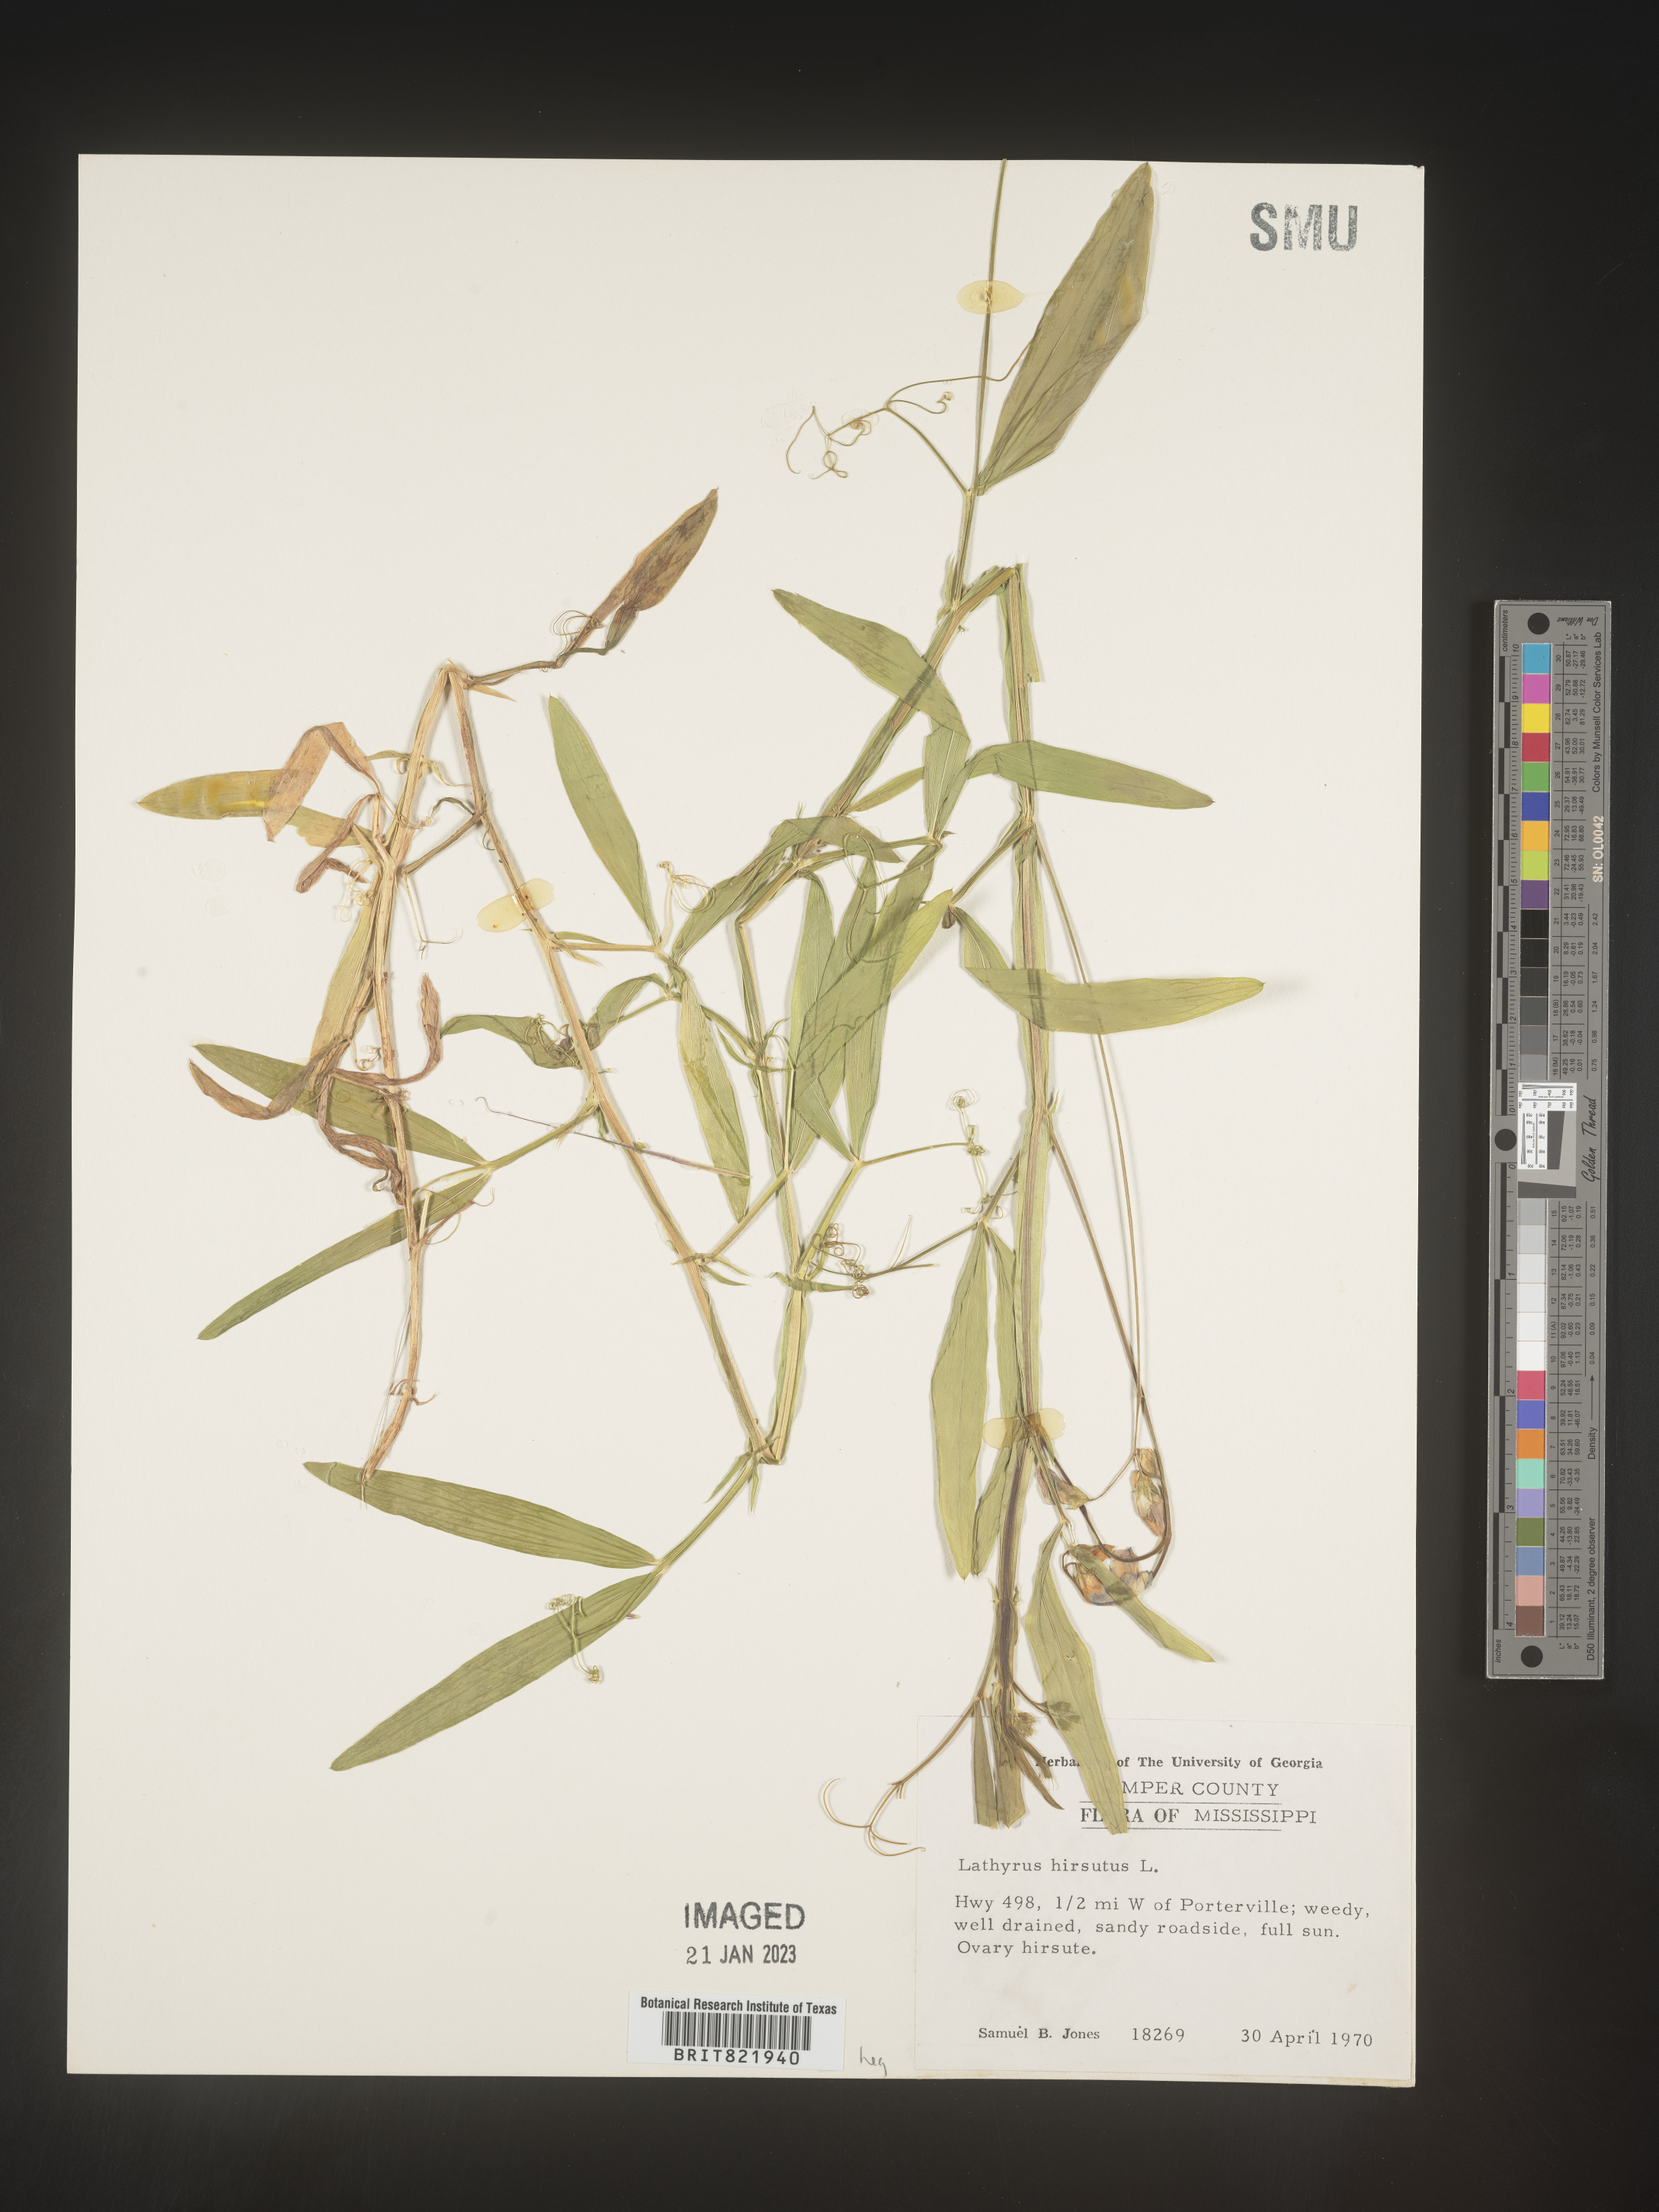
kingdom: Plantae
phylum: Tracheophyta
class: Magnoliopsida
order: Fabales
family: Fabaceae
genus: Lathyrus
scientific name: Lathyrus hirsutus
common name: Hairy vetchling
